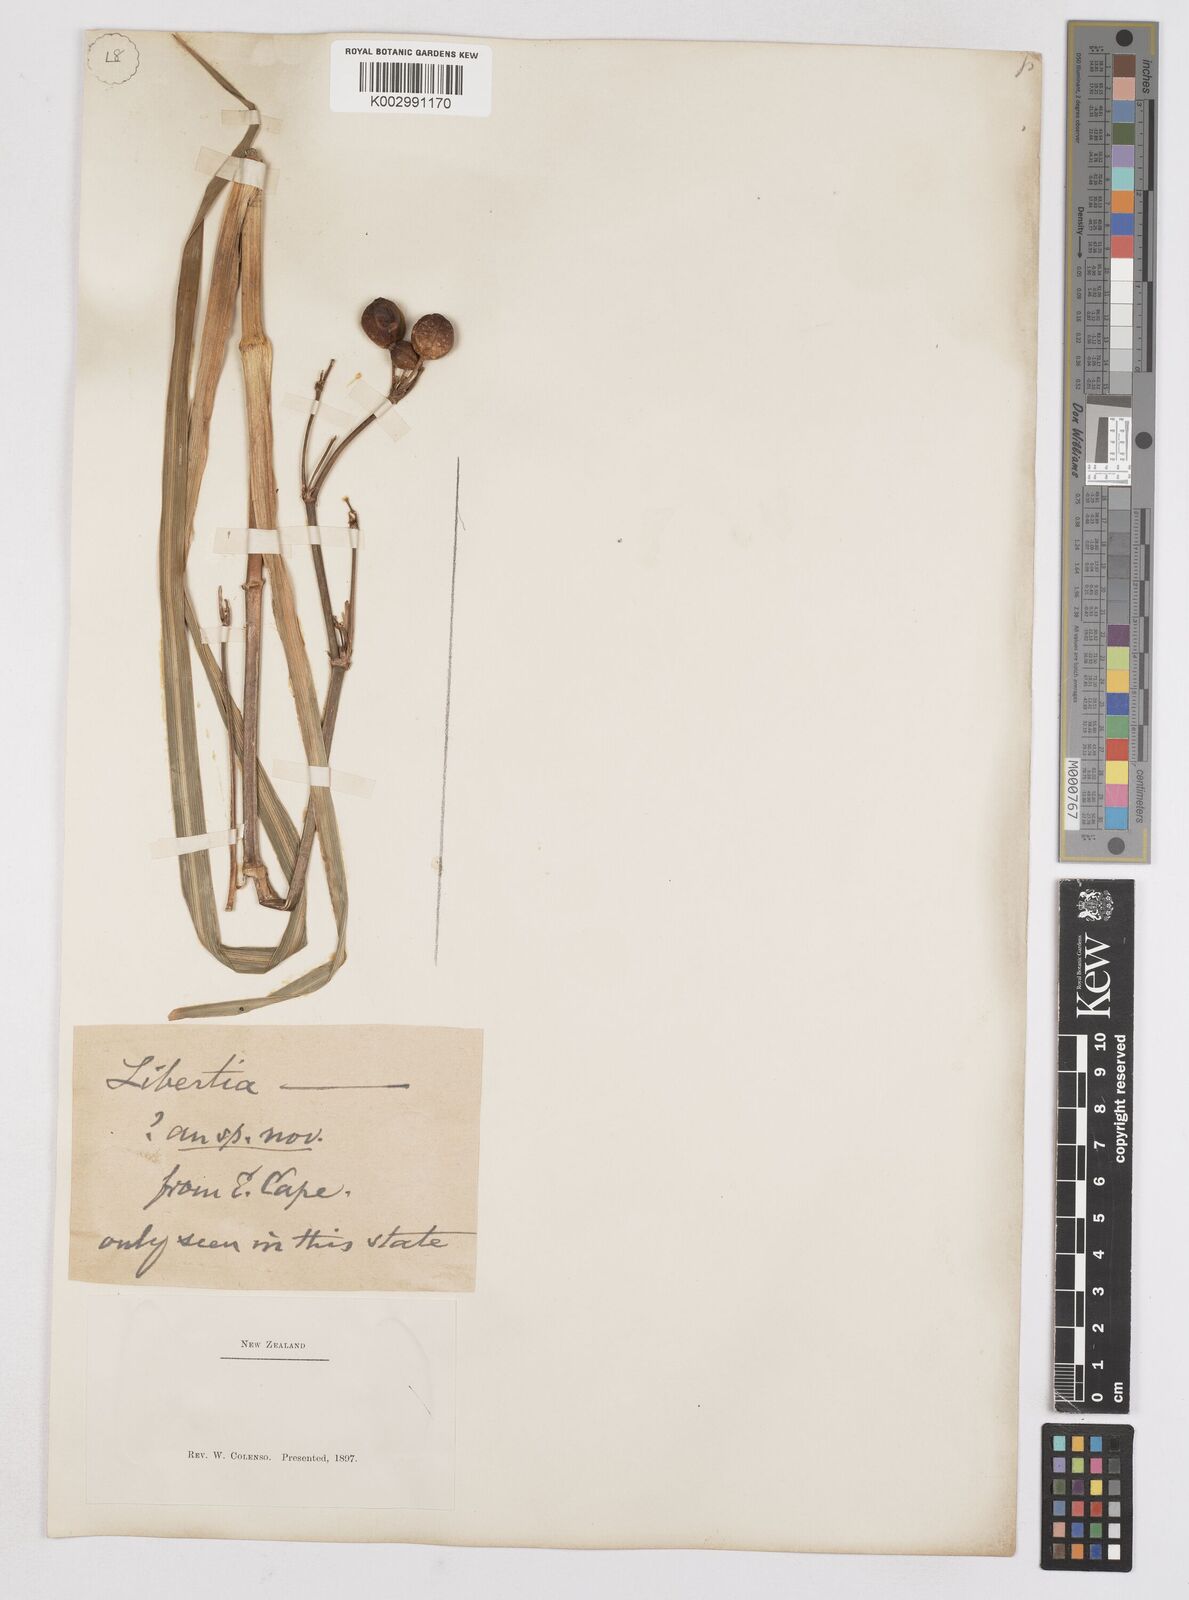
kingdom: Plantae
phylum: Tracheophyta
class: Liliopsida
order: Asparagales
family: Iridaceae
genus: Libertia
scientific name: Libertia ixioides
